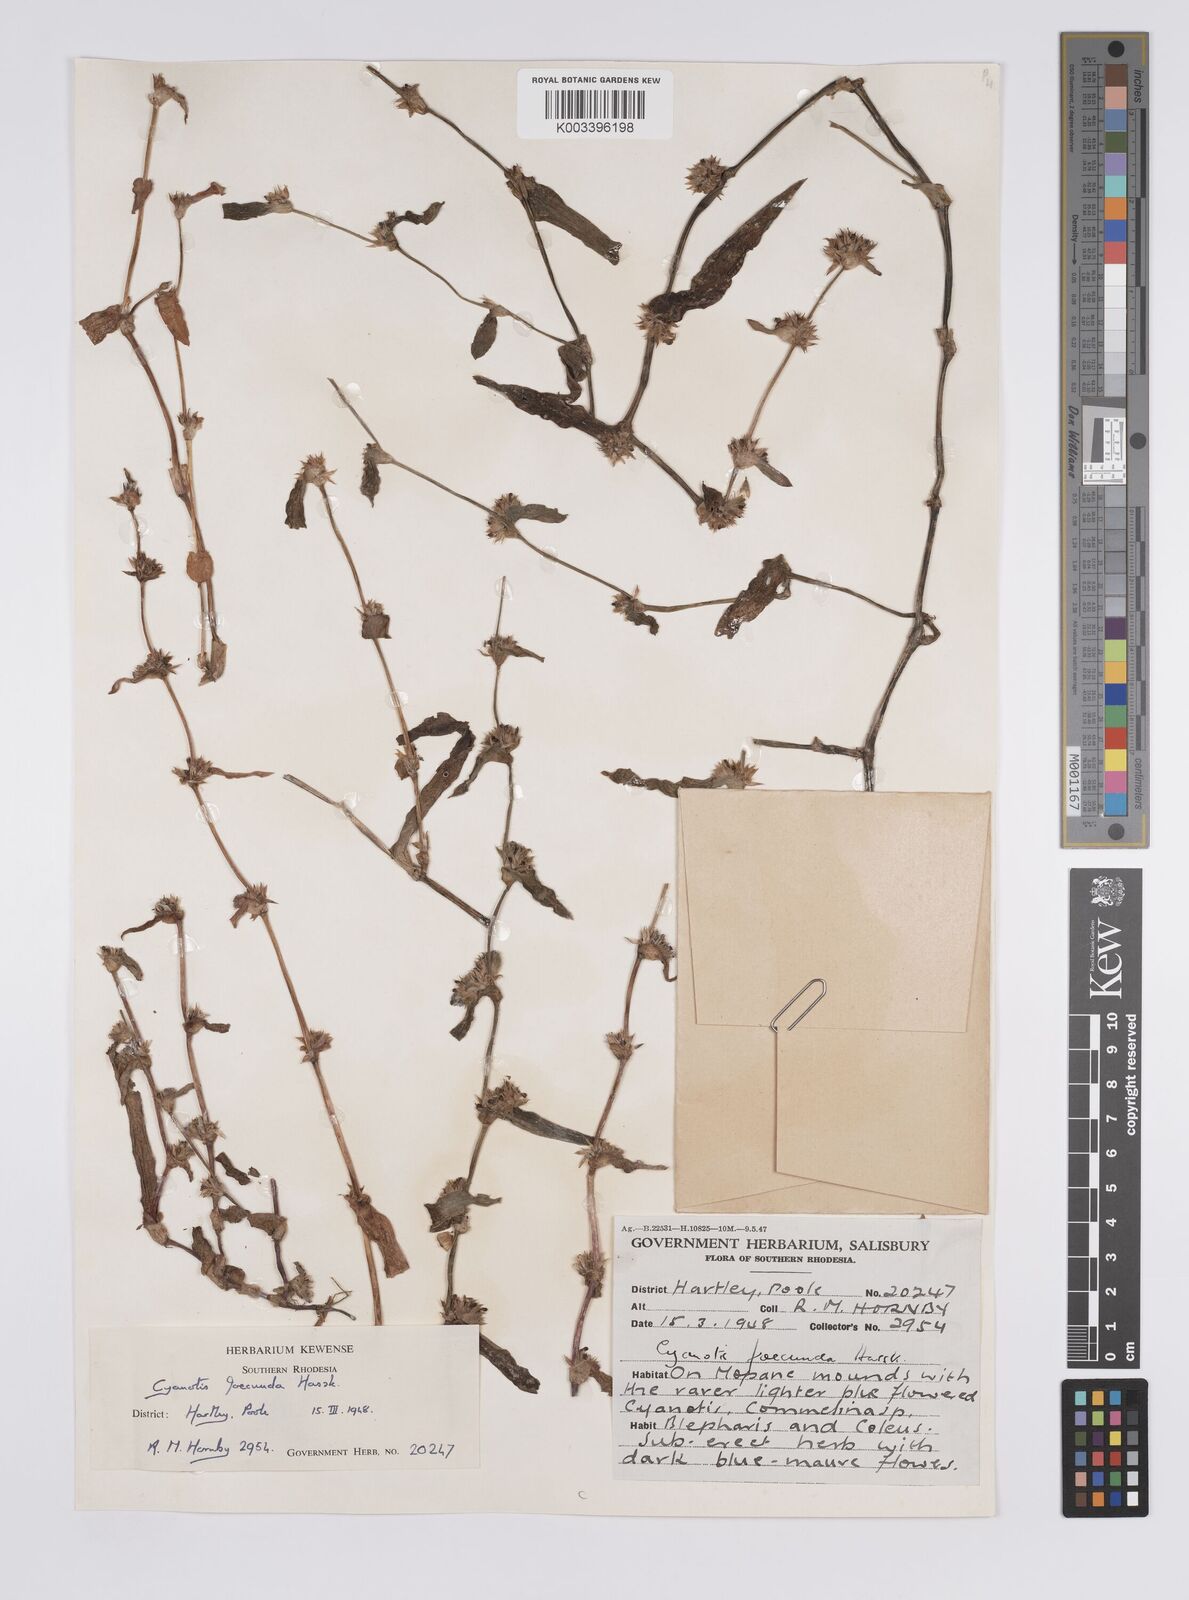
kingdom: Plantae
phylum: Tracheophyta
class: Liliopsida
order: Commelinales
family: Commelinaceae
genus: Cyanotis
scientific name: Cyanotis foecunda
